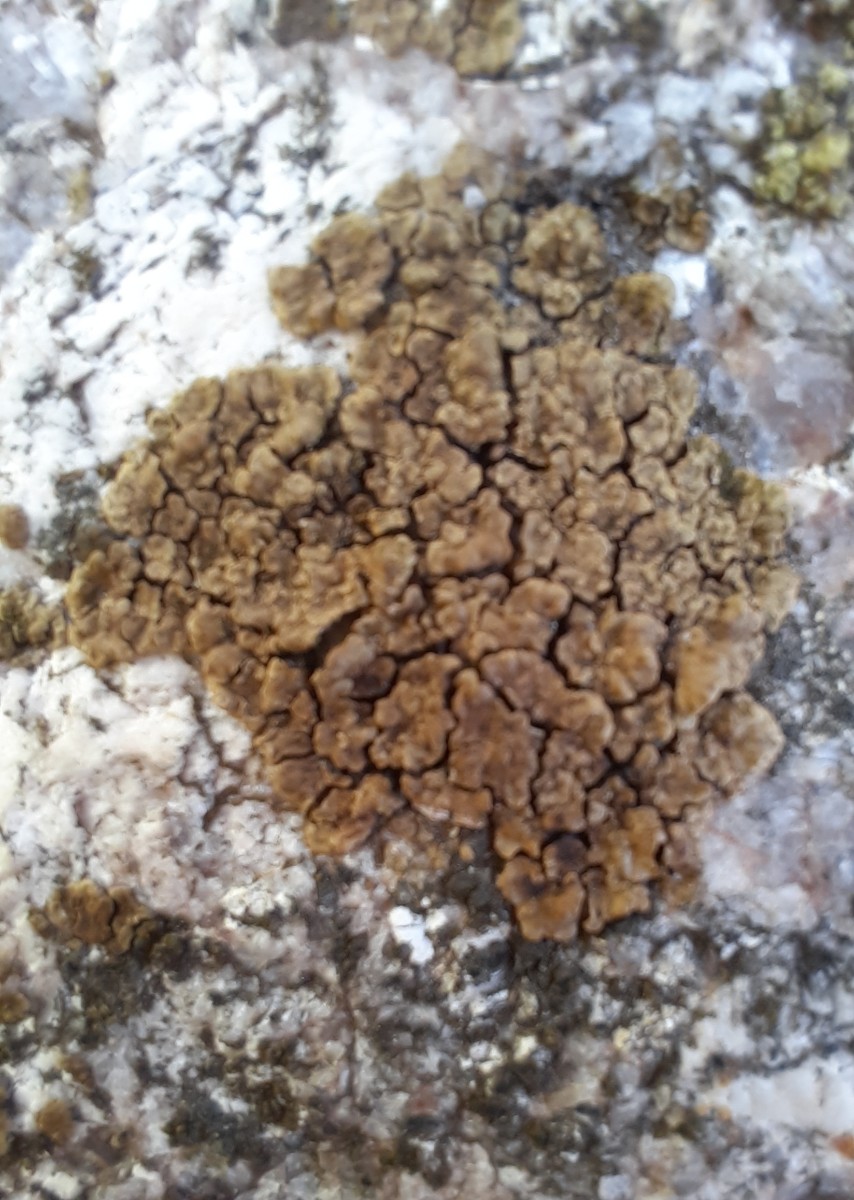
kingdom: Fungi
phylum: Ascomycota
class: Lecanoromycetes
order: Acarosporales
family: Acarosporaceae
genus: Acarospora
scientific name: Acarospora fuscata
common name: brun småsporelav
